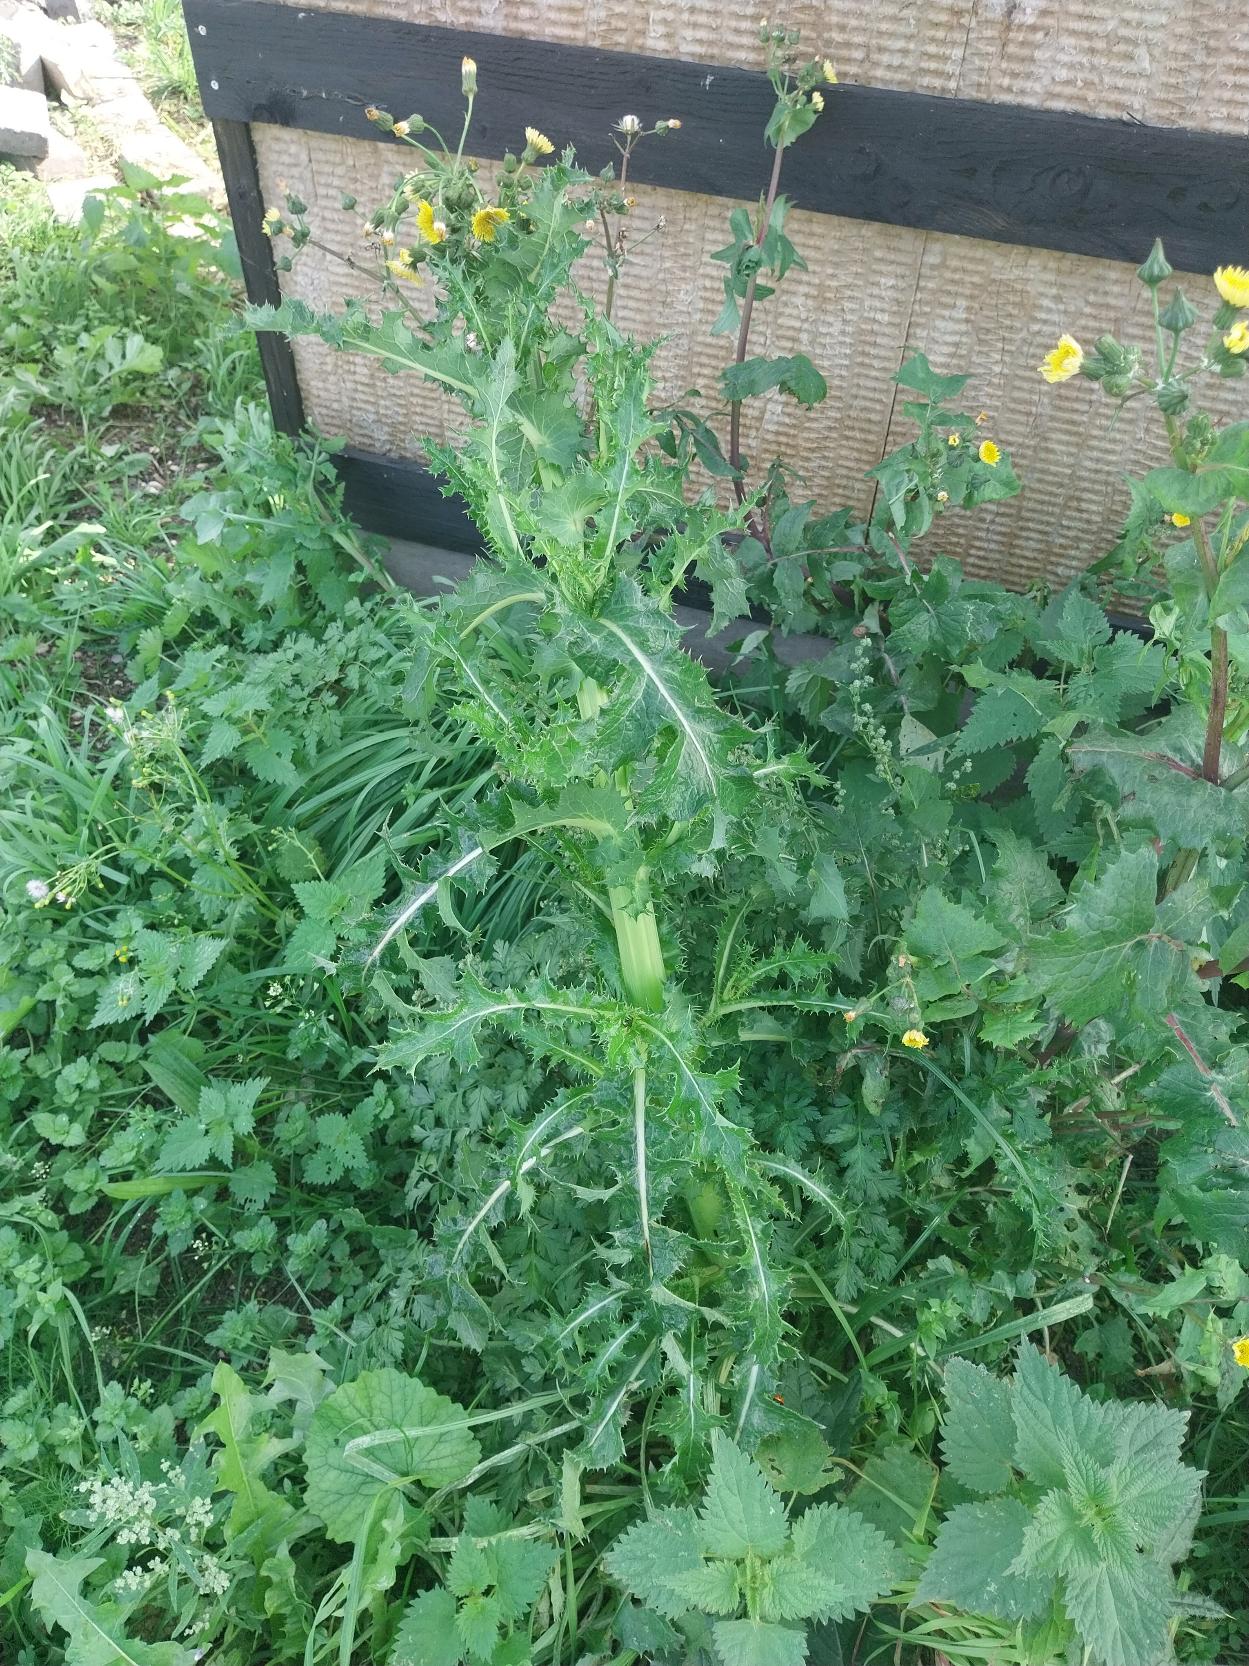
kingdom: Plantae
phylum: Tracheophyta
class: Magnoliopsida
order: Asterales
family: Asteraceae
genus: Sonchus
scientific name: Sonchus asper
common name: Ru svinemælk
